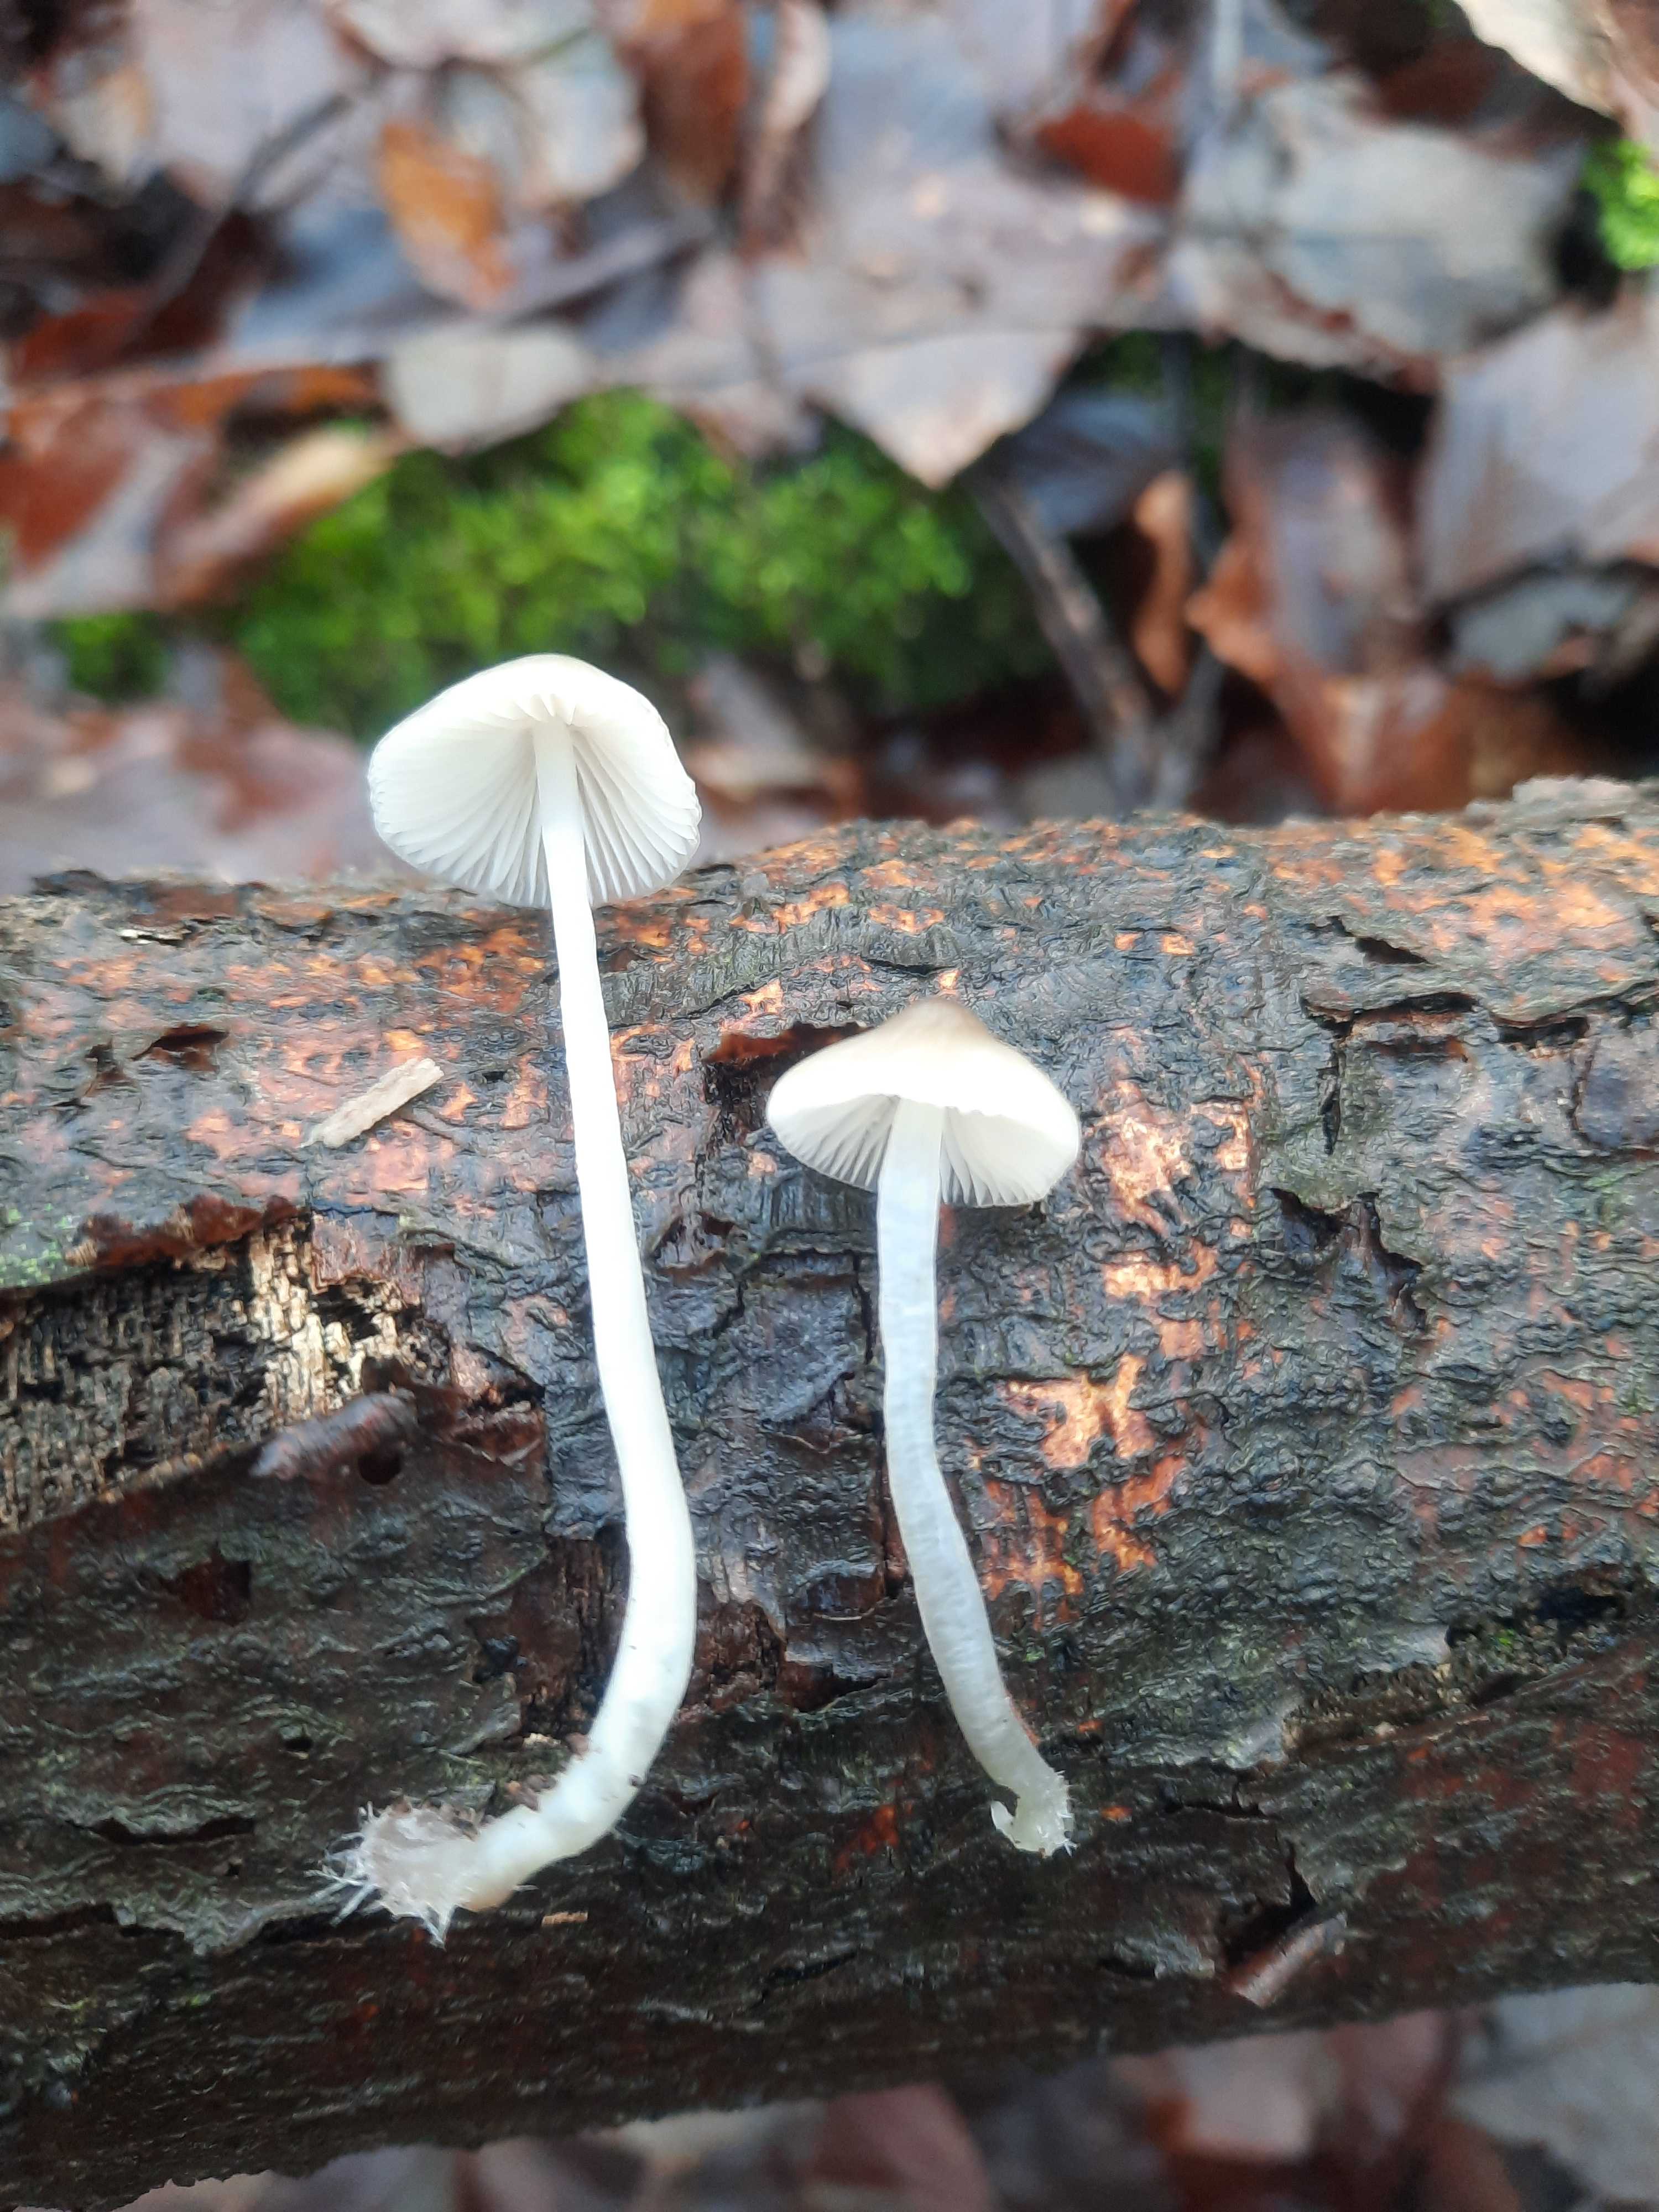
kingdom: Fungi
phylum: Basidiomycota
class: Agaricomycetes
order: Agaricales
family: Mycenaceae
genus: Mycena
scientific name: Mycena
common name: huesvamp
